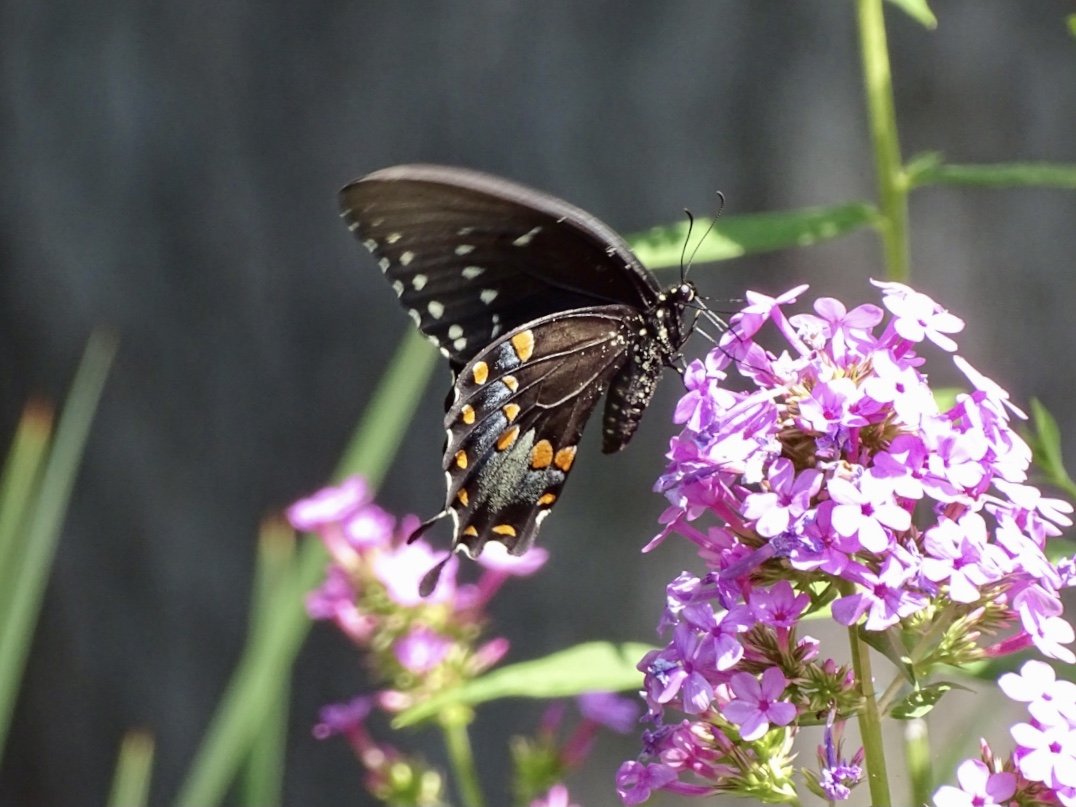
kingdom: Animalia
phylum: Arthropoda
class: Insecta
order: Lepidoptera
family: Papilionidae
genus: Pterourus
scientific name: Pterourus troilus
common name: Spicebush Swallowtail
